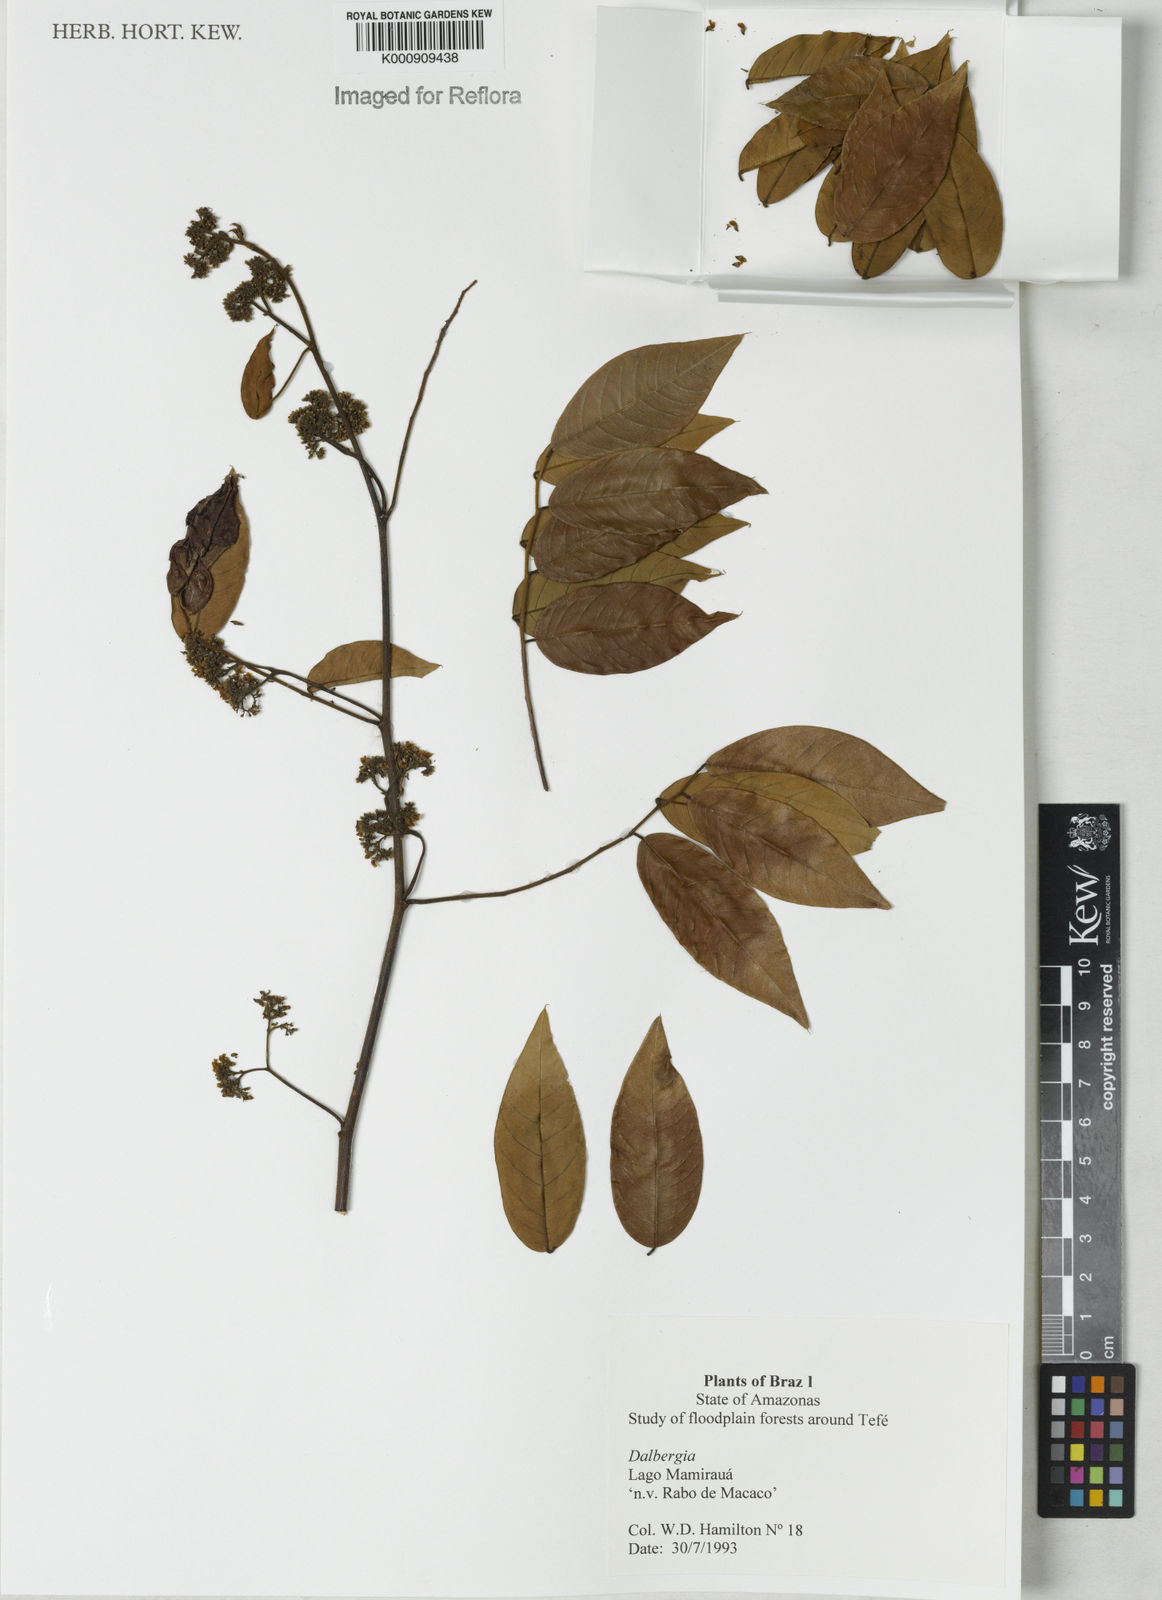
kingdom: Plantae
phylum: Tracheophyta
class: Magnoliopsida
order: Fabales
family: Fabaceae
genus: Dalbergia
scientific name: Dalbergia
